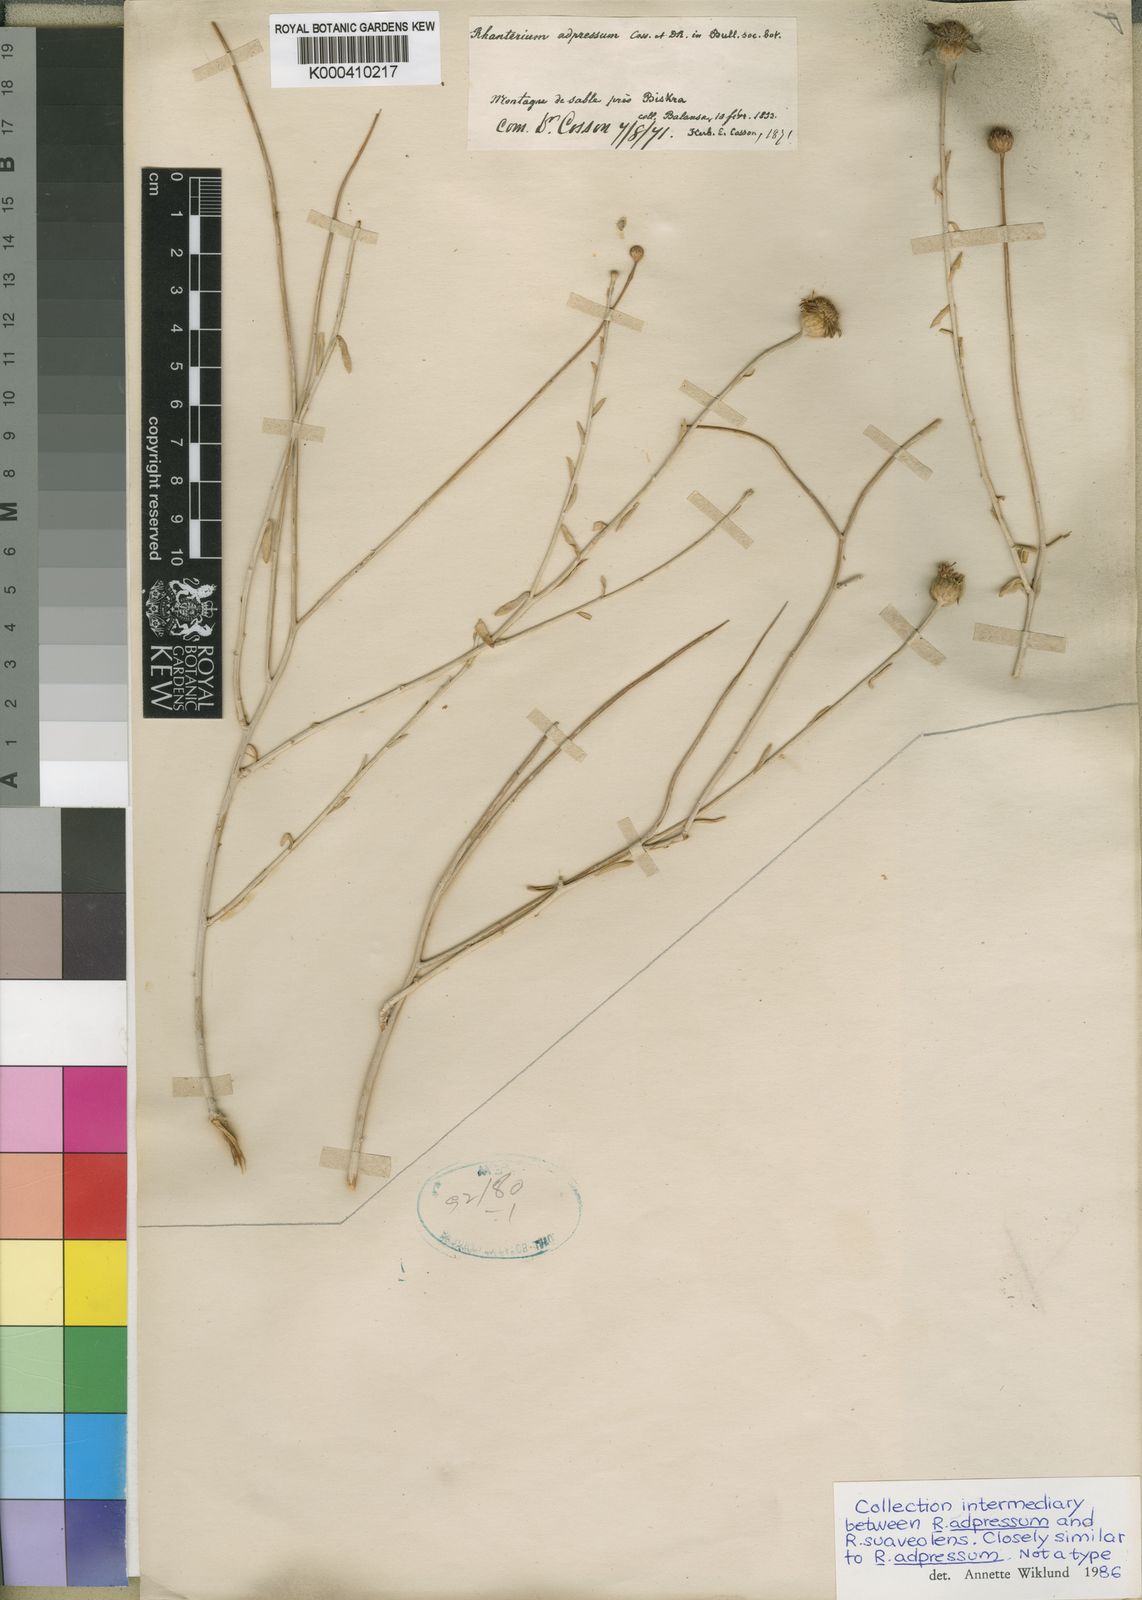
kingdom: Plantae
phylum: Tracheophyta
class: Magnoliopsida
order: Asterales
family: Asteraceae
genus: Rhanterium
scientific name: Rhanterium suaveolens
